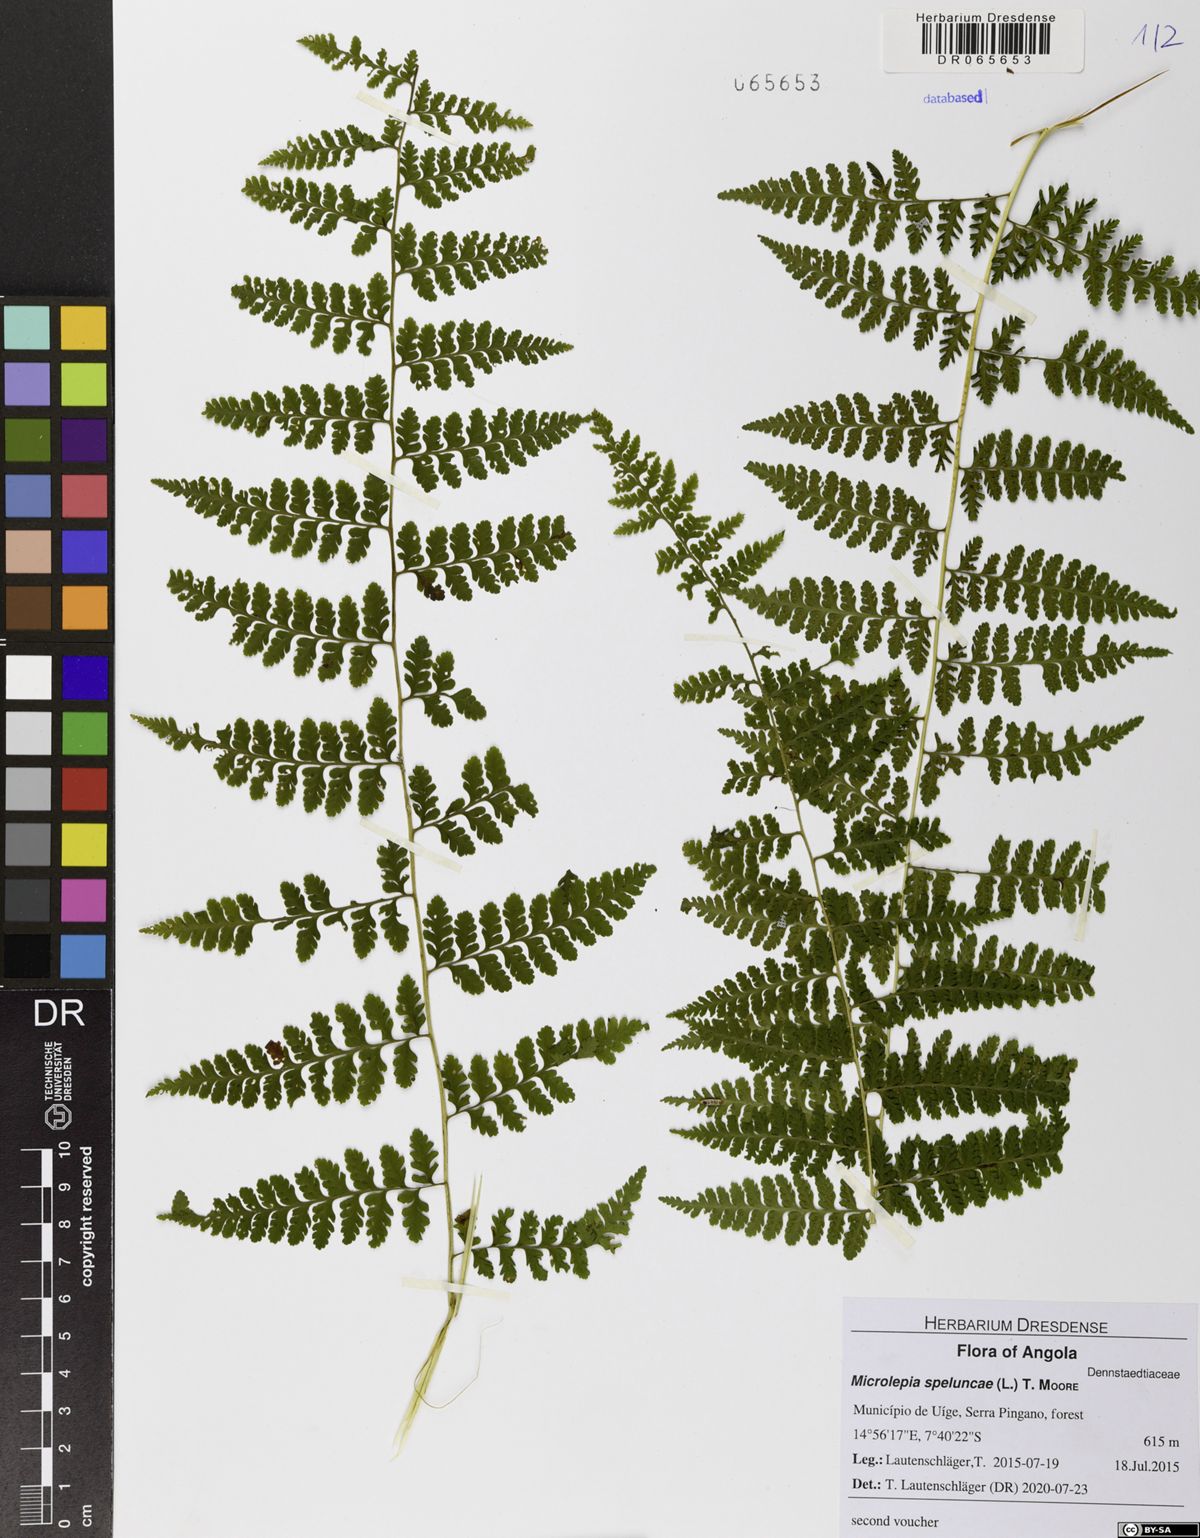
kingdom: Plantae
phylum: Tracheophyta
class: Polypodiopsida
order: Polypodiales
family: Dennstaedtiaceae
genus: Microlepia
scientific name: Microlepia speluncae
